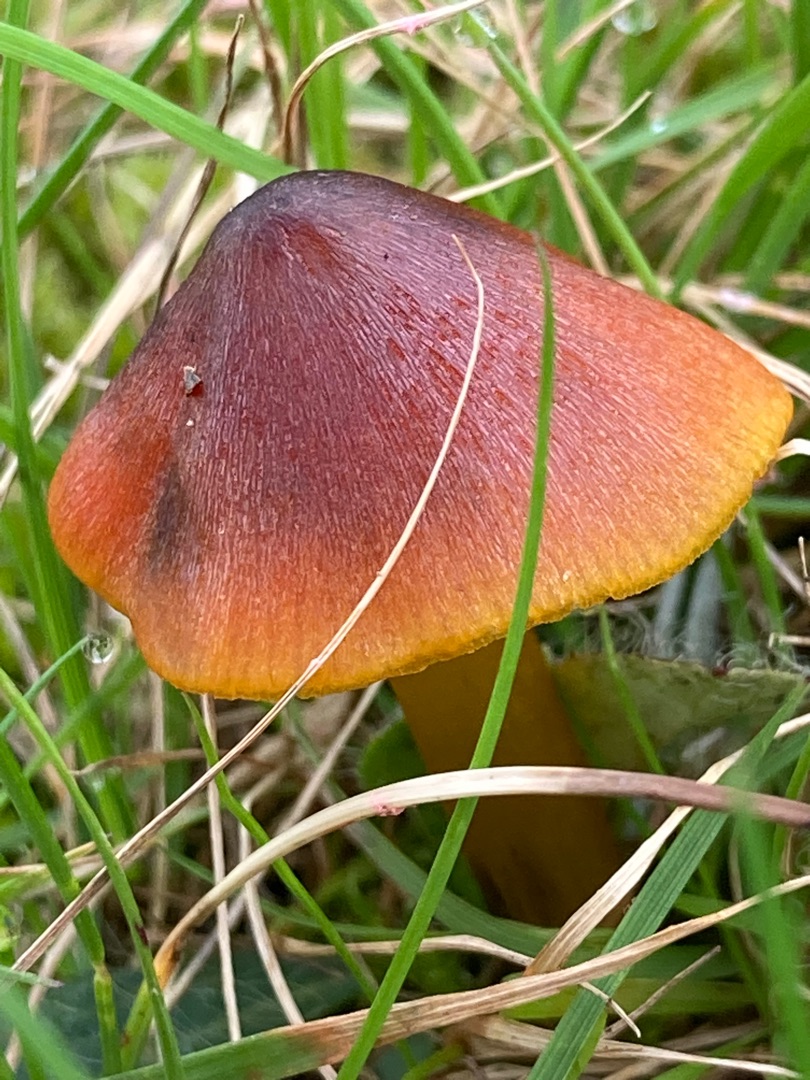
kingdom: Fungi
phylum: Basidiomycota
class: Agaricomycetes
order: Agaricales
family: Hygrophoraceae
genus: Hygrocybe
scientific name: Hygrocybe conica
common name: Kegle-vokshat
